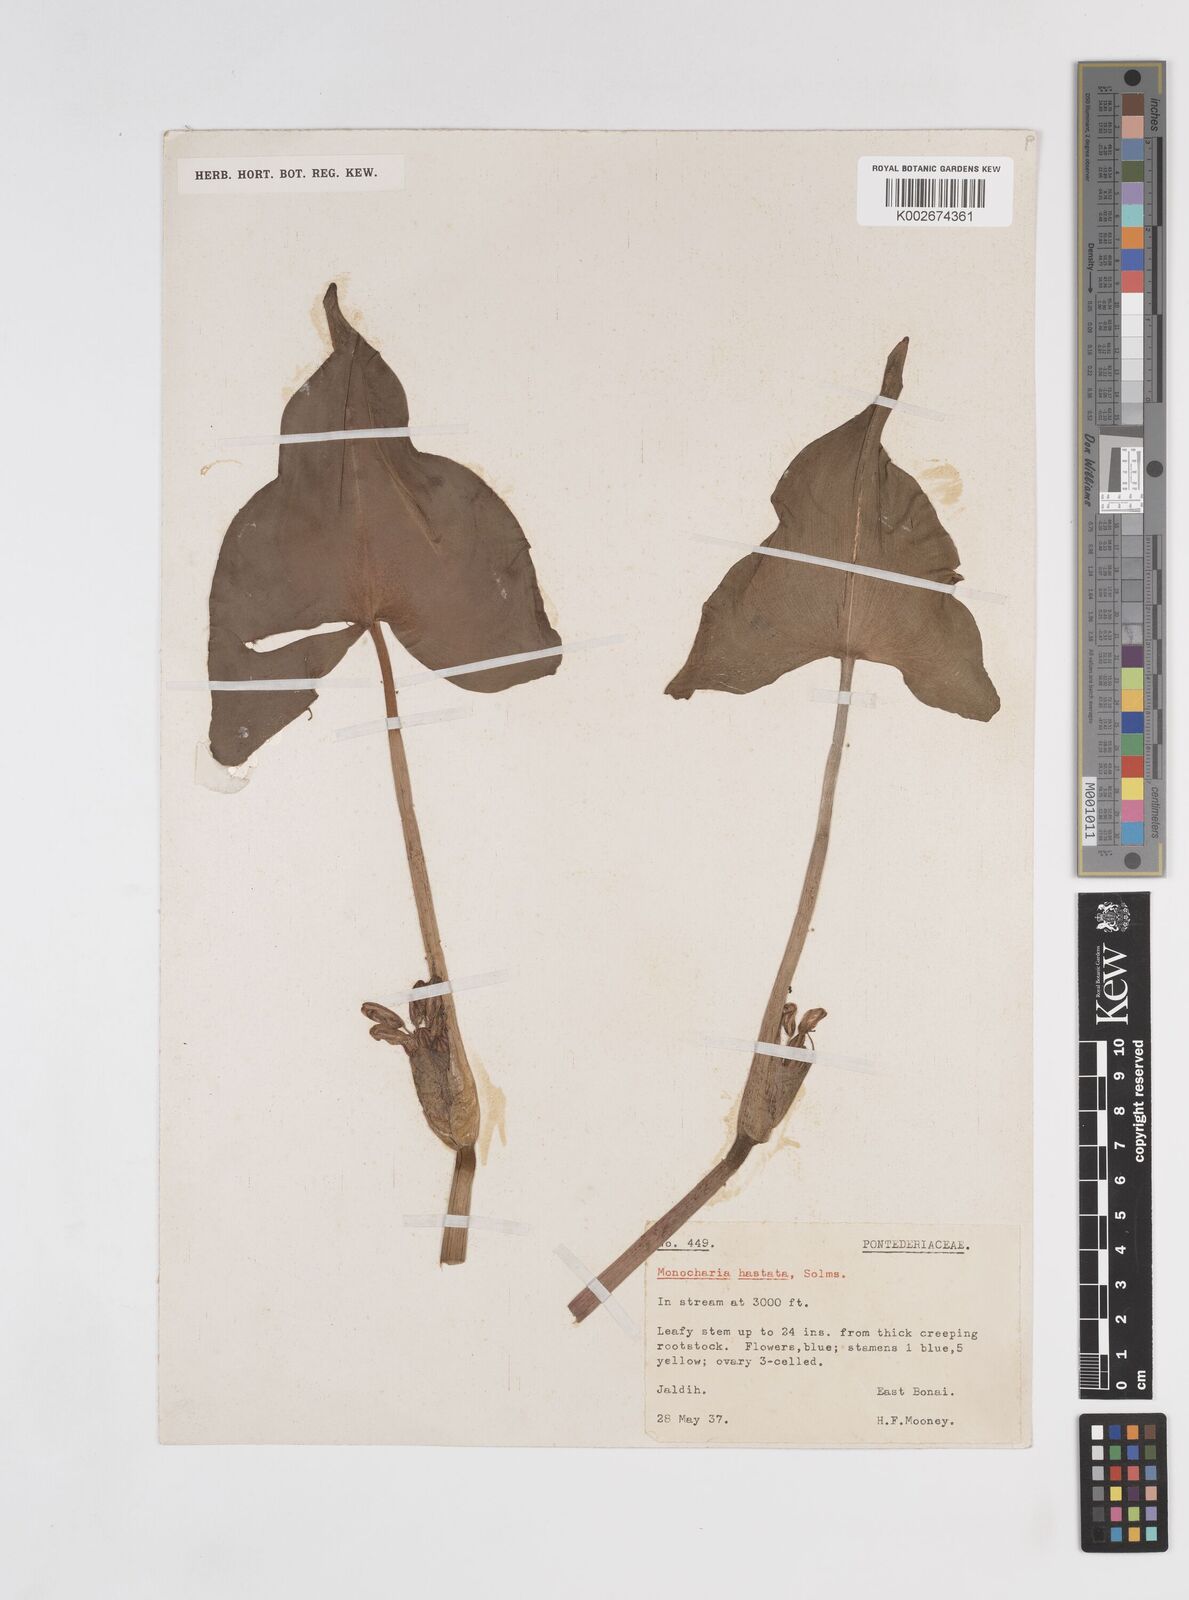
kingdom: Plantae
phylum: Tracheophyta
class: Liliopsida
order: Commelinales
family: Pontederiaceae
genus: Pontederia
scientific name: Pontederia hastata
